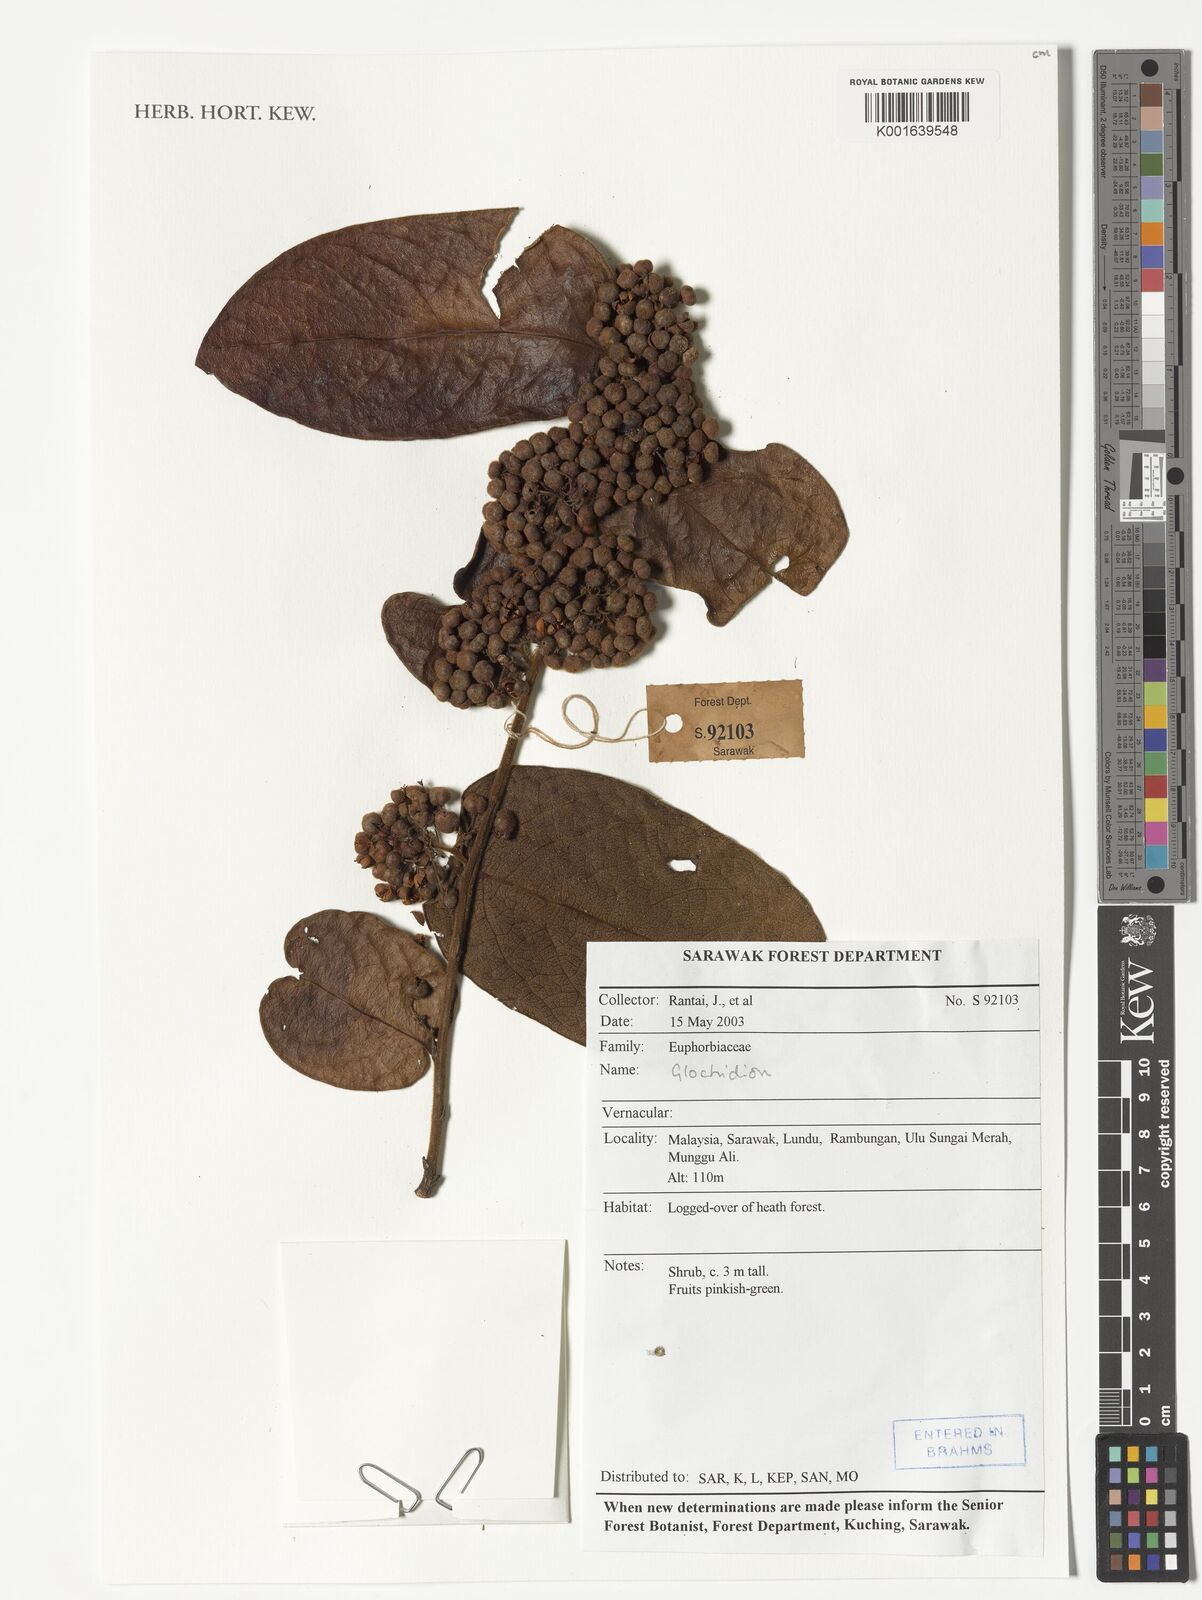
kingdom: Plantae
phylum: Tracheophyta
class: Magnoliopsida
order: Malpighiales
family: Phyllanthaceae
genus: Glochidion
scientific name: Glochidion
